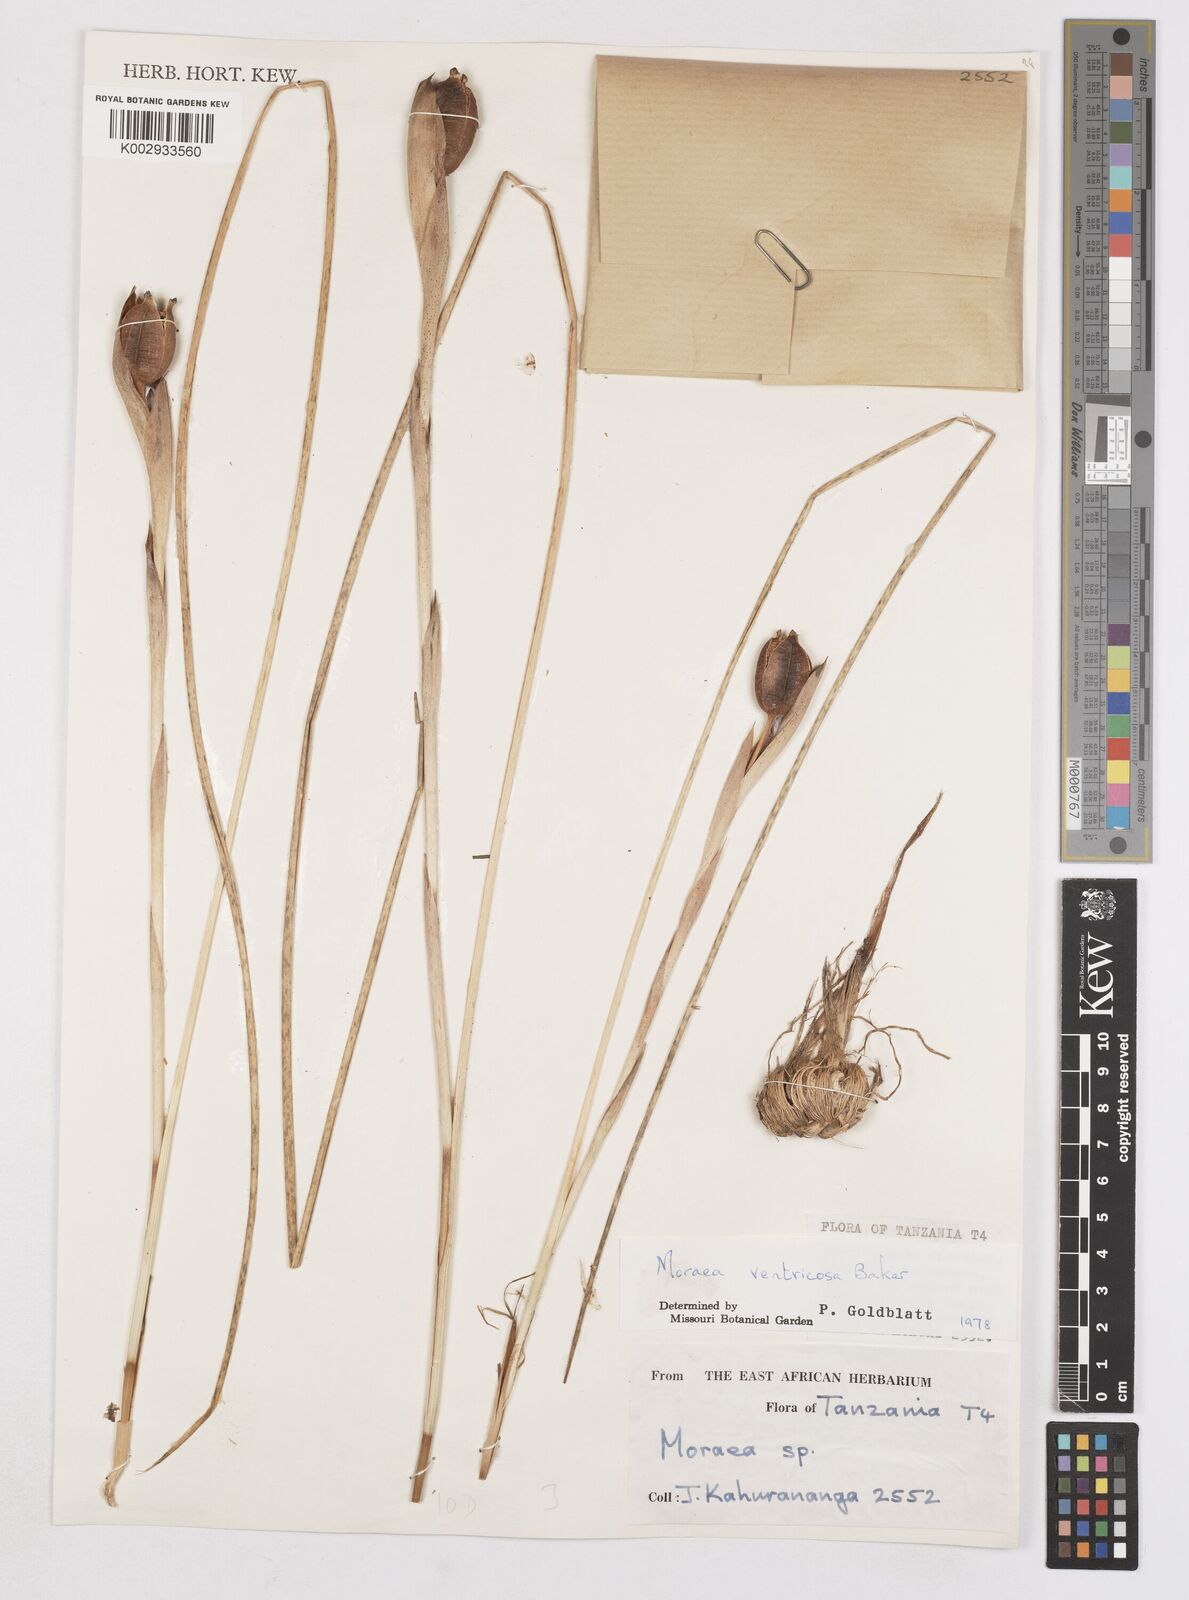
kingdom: Plantae
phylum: Tracheophyta
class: Liliopsida
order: Asparagales
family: Iridaceae
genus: Moraea
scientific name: Moraea ventricosa
